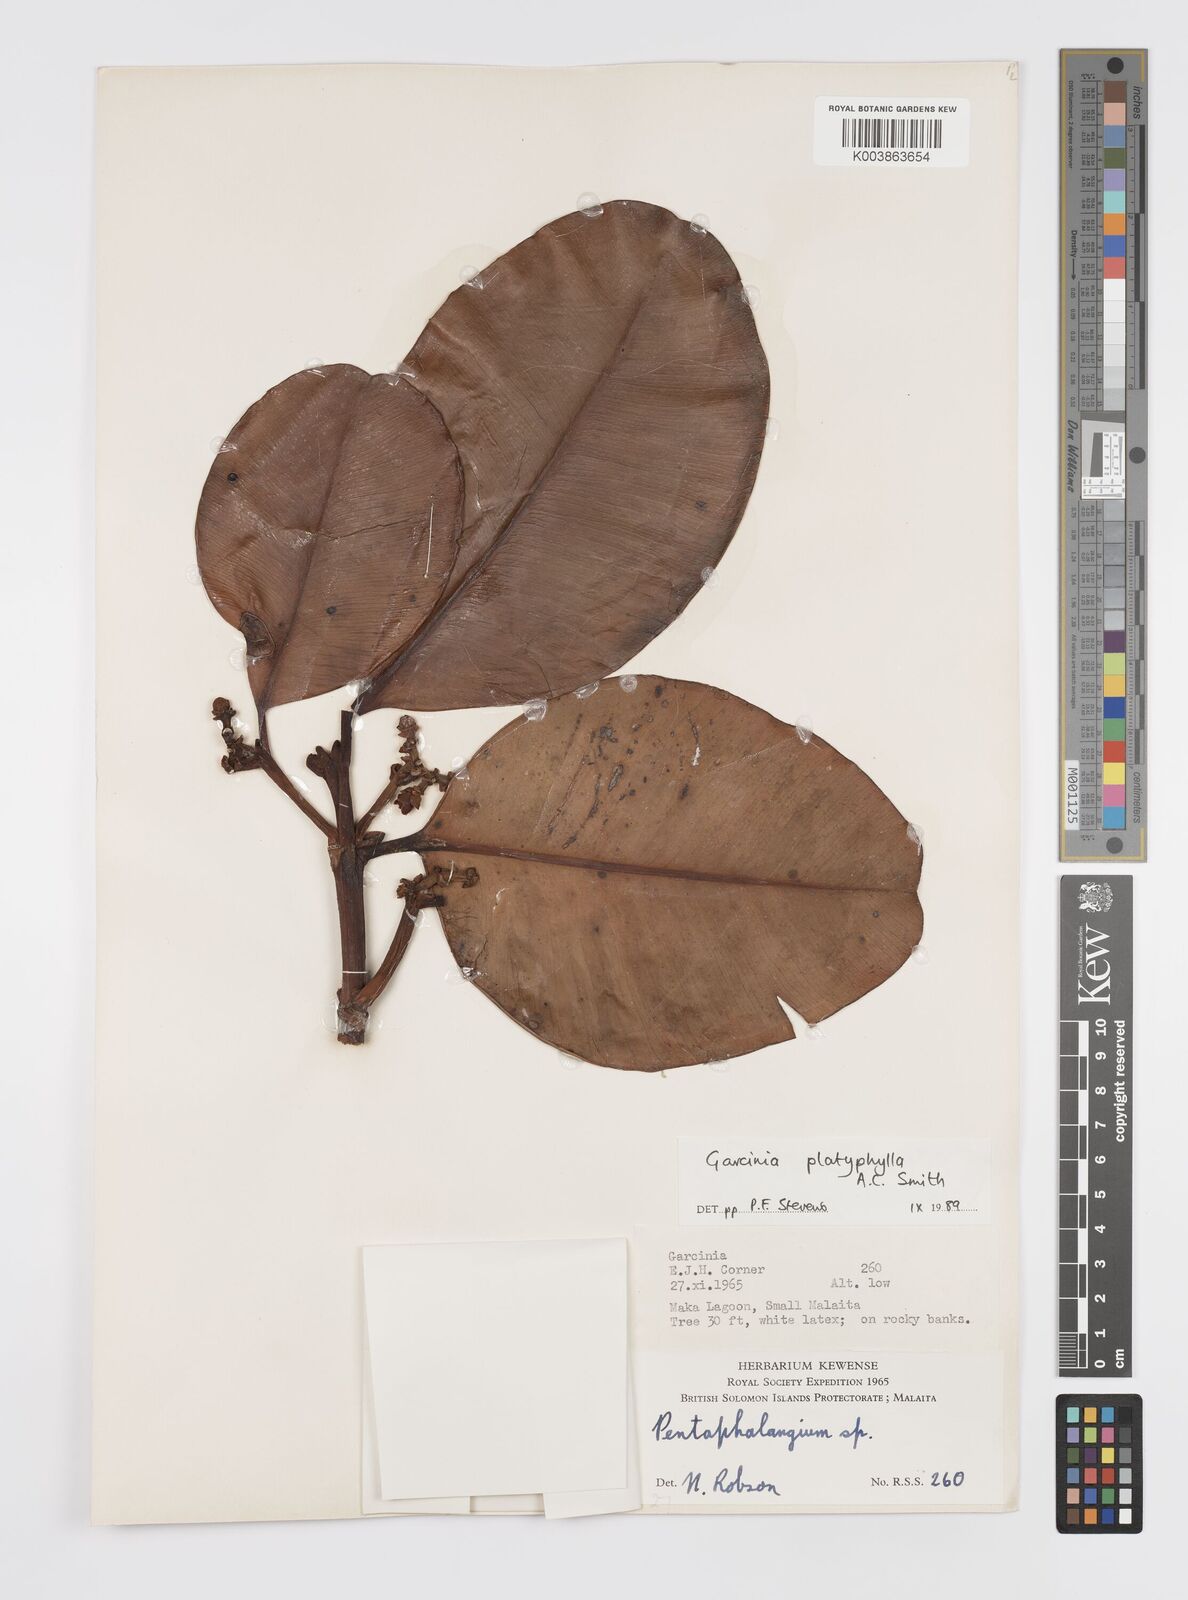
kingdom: Plantae
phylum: Tracheophyta
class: Magnoliopsida
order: Malpighiales
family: Clusiaceae
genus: Garcinia
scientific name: Garcinia platyphylla
